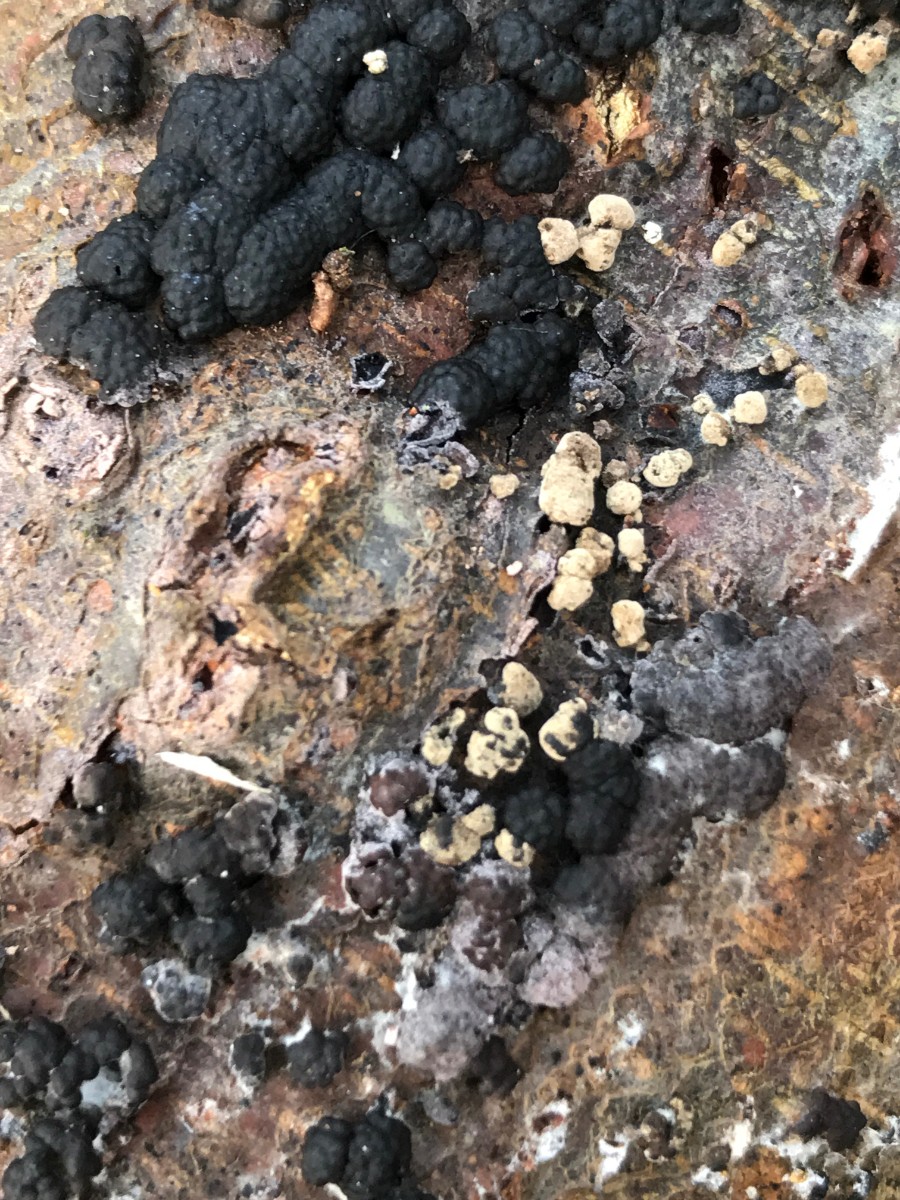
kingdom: Fungi
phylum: Ascomycota
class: Sordariomycetes
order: Xylariales
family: Hypoxylaceae
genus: Jackrogersella
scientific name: Jackrogersella cohaerens
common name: sammenflydende kulbær
